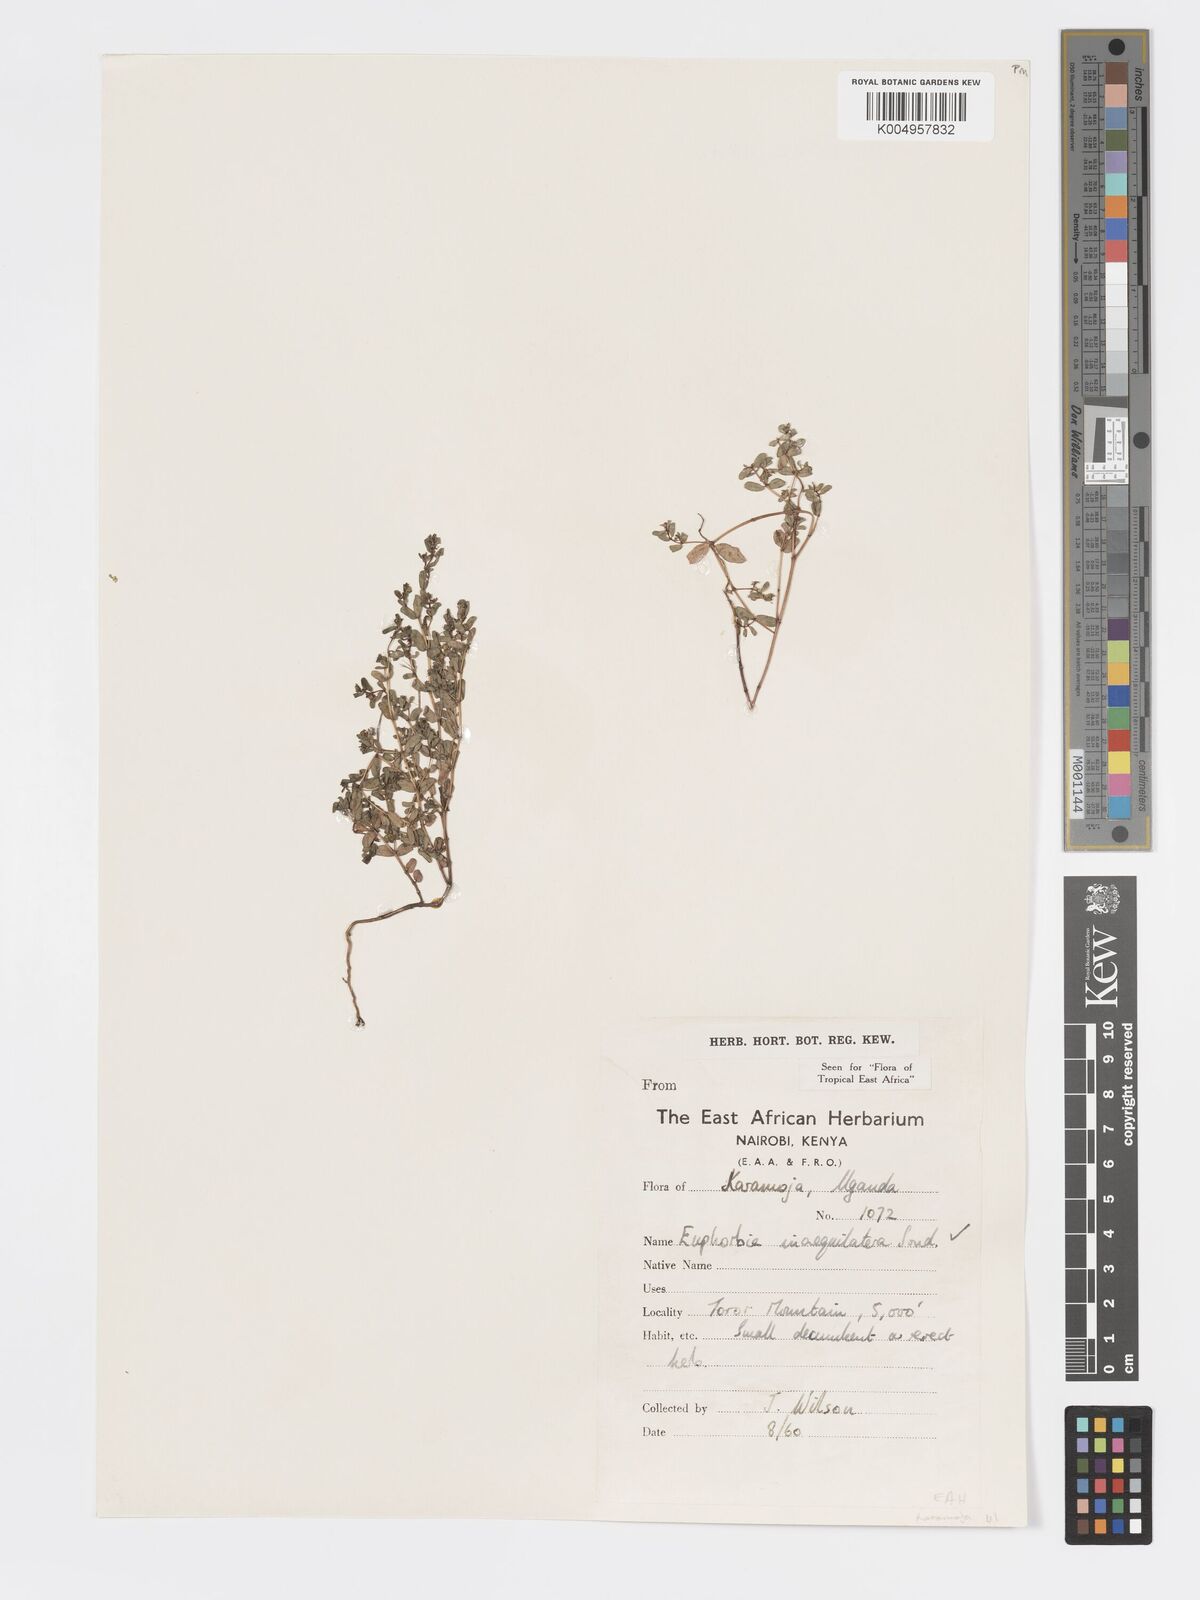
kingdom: Plantae
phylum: Tracheophyta
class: Magnoliopsida
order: Malpighiales
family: Euphorbiaceae
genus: Euphorbia
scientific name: Euphorbia inaequilatera
